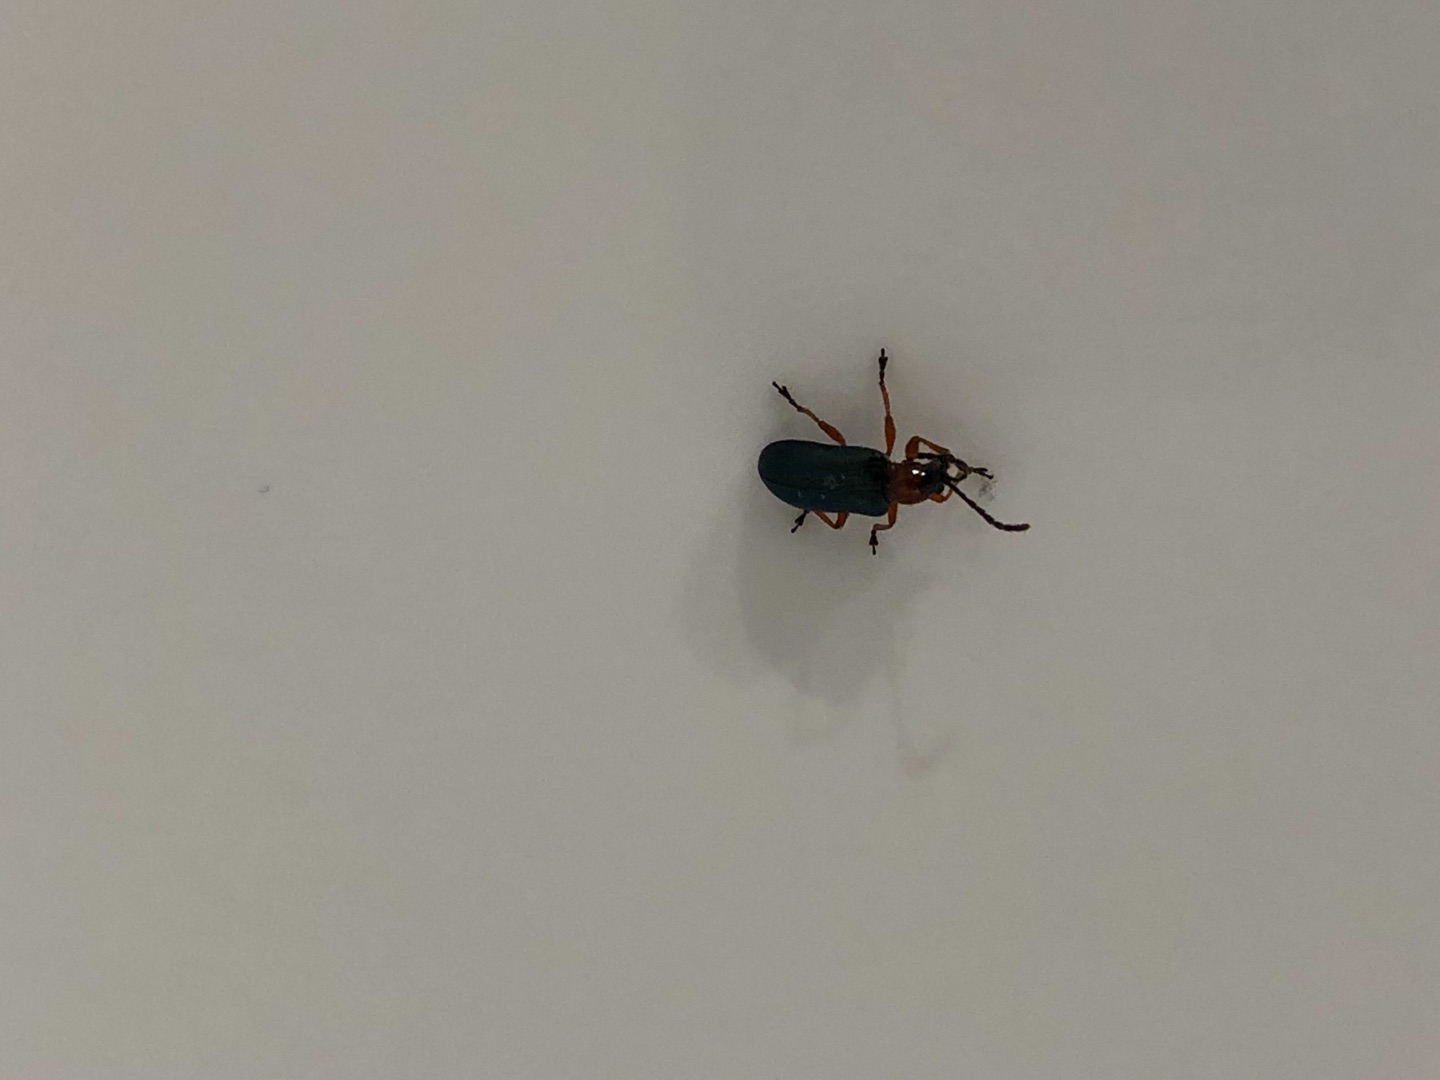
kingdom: Animalia
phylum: Arthropoda
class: Insecta
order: Coleoptera
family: Orsodacnidae
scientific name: Orsodacnidae
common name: Bladbiller
